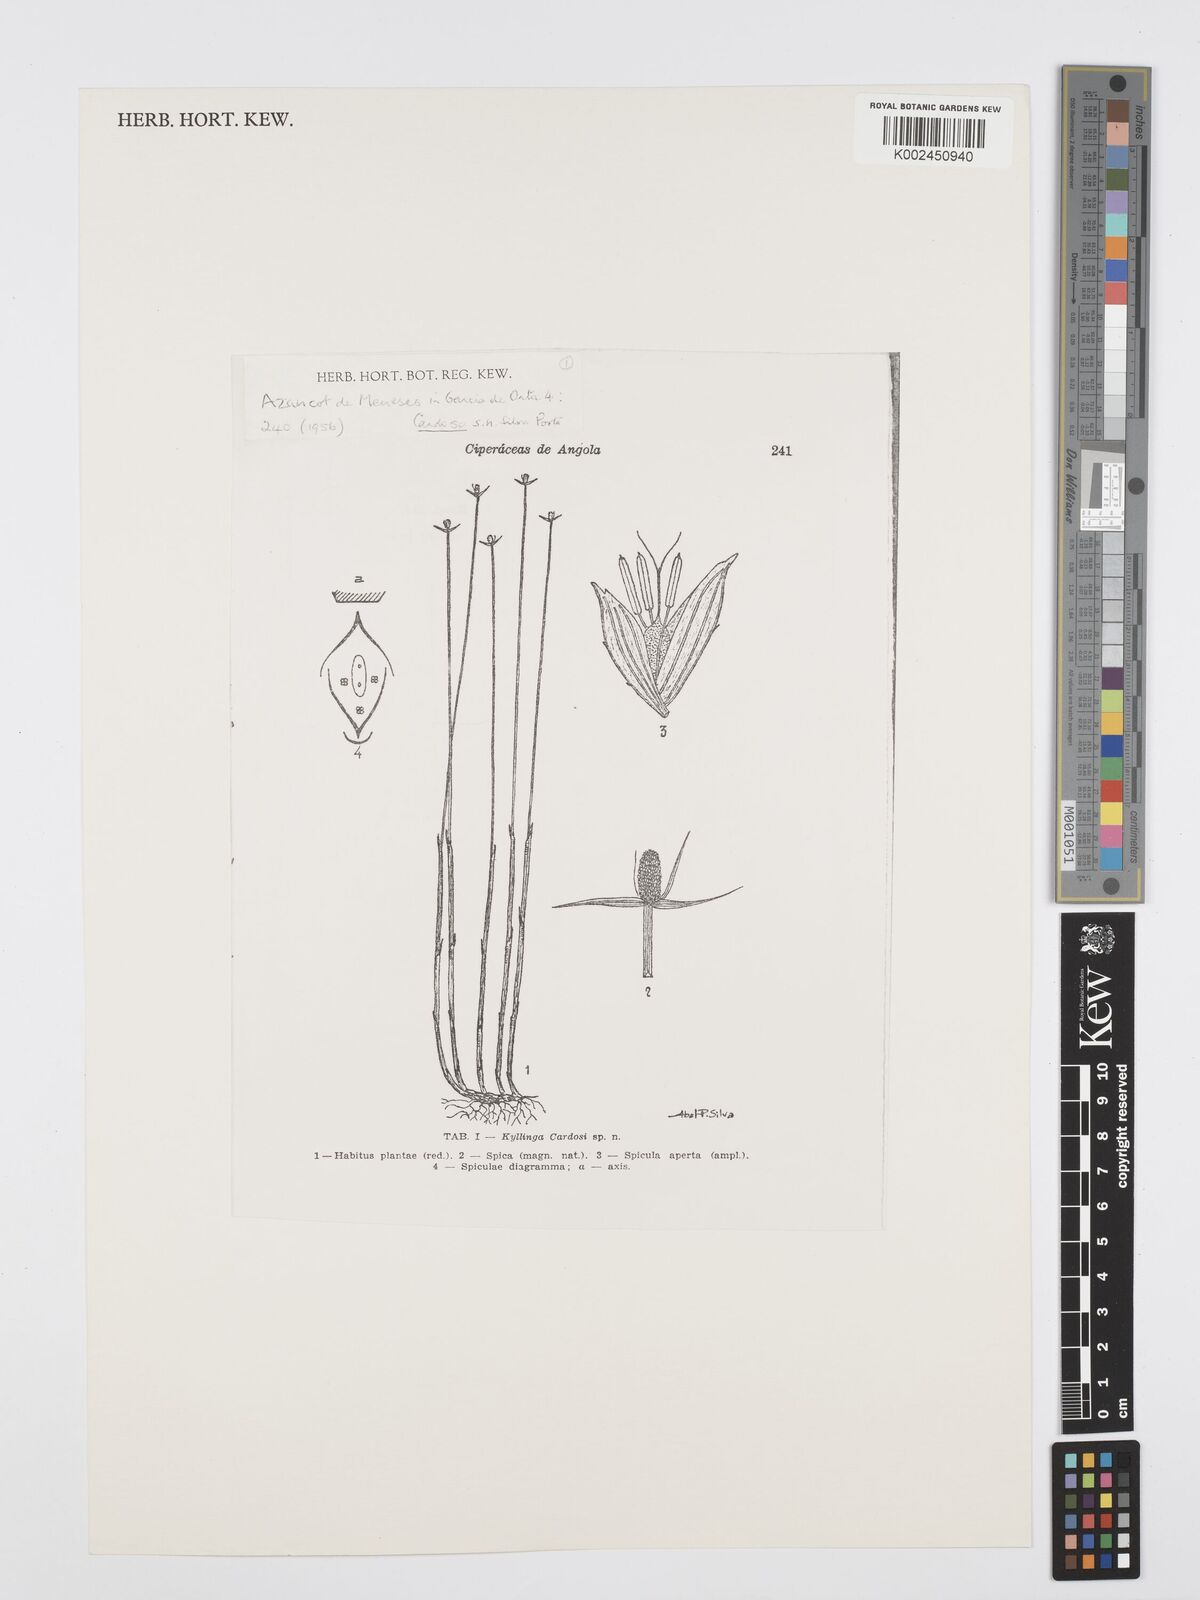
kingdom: Plantae
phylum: Tracheophyta
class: Liliopsida
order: Poales
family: Cyperaceae
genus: Cyperus
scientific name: Cyperus cardosoi
